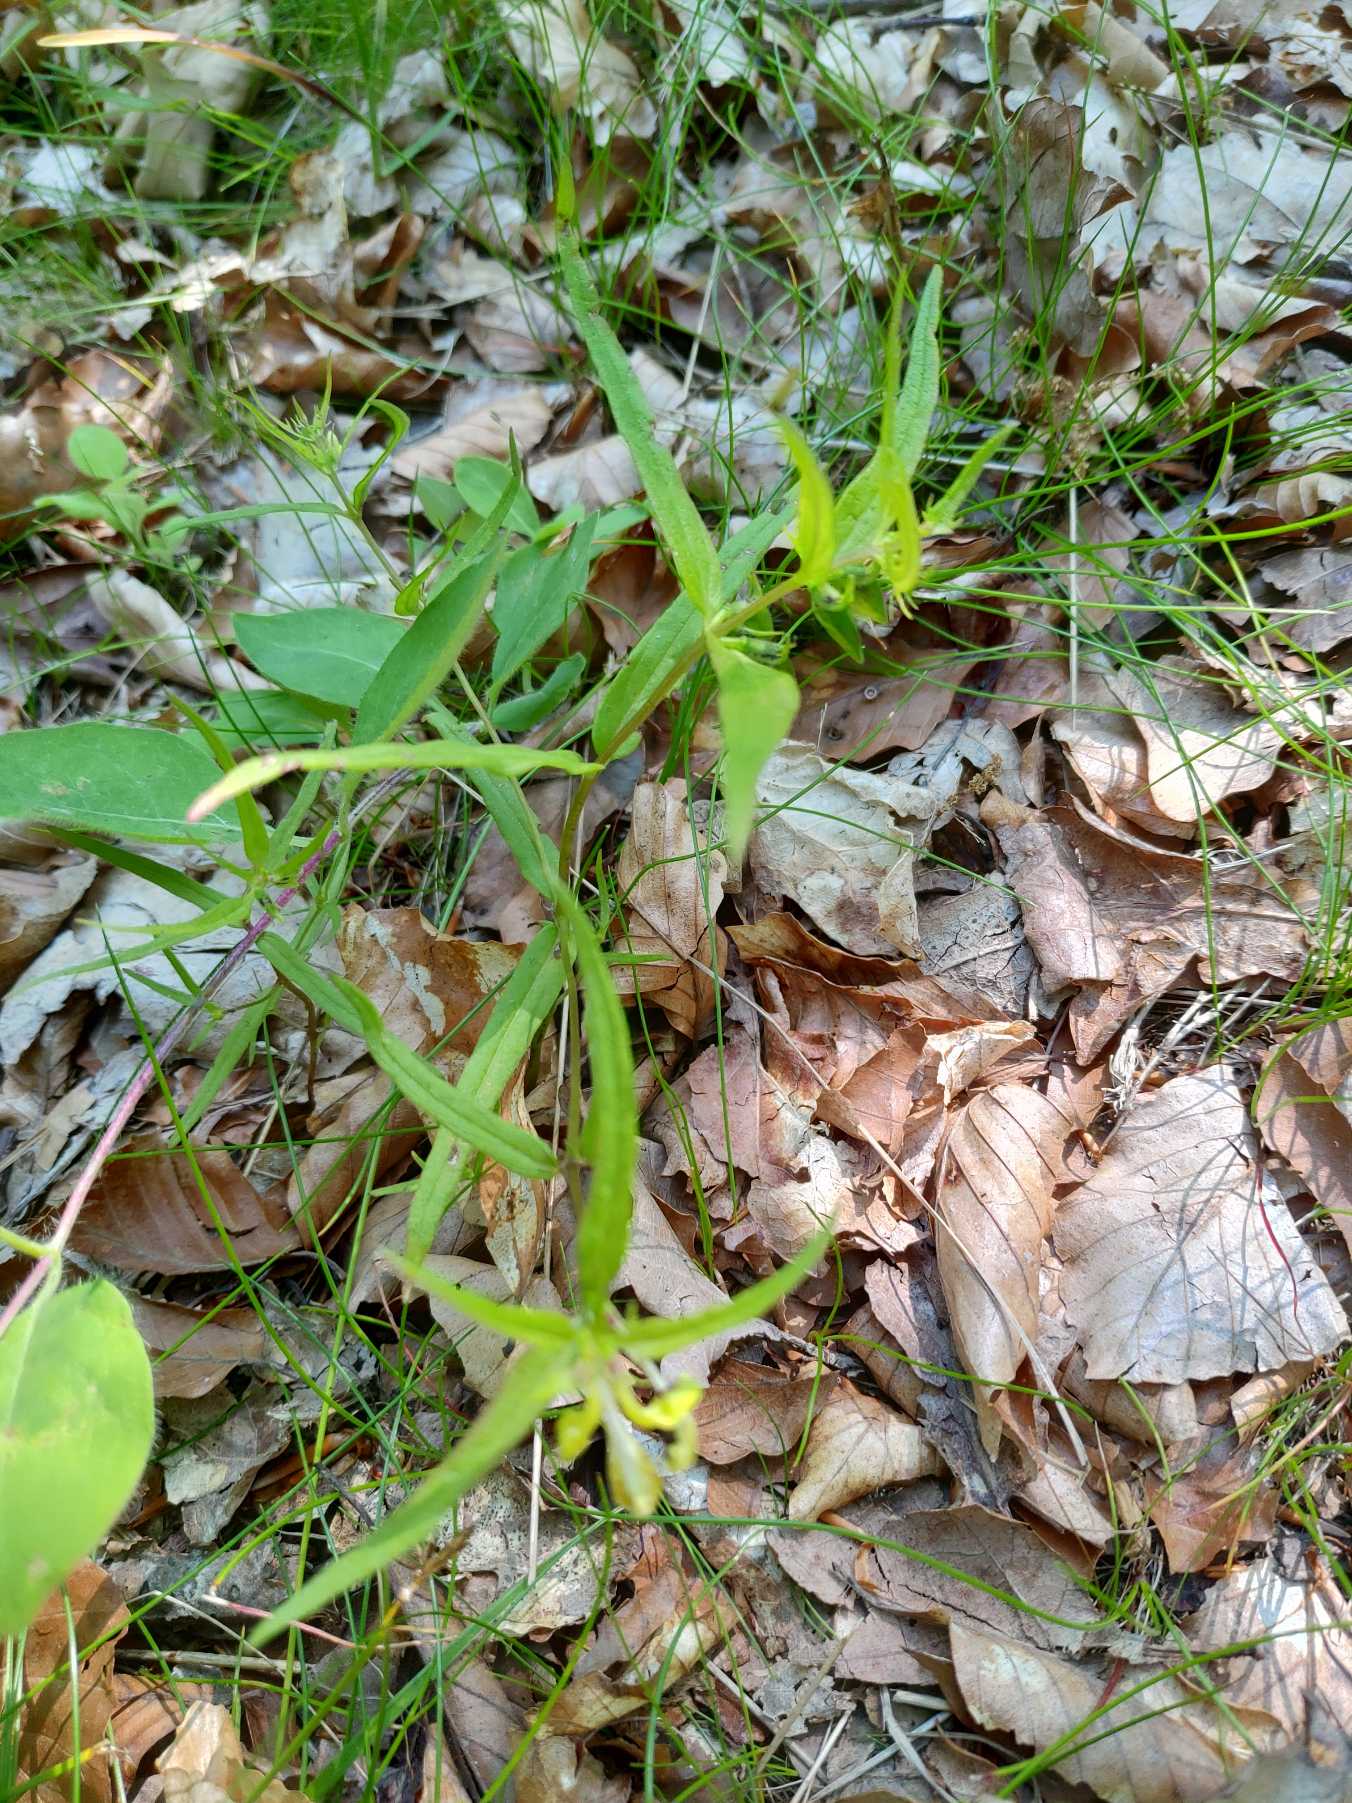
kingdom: Plantae
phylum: Tracheophyta
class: Magnoliopsida
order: Lamiales
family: Orobanchaceae
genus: Melampyrum
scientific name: Melampyrum pratense
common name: Almindelig kohvede
